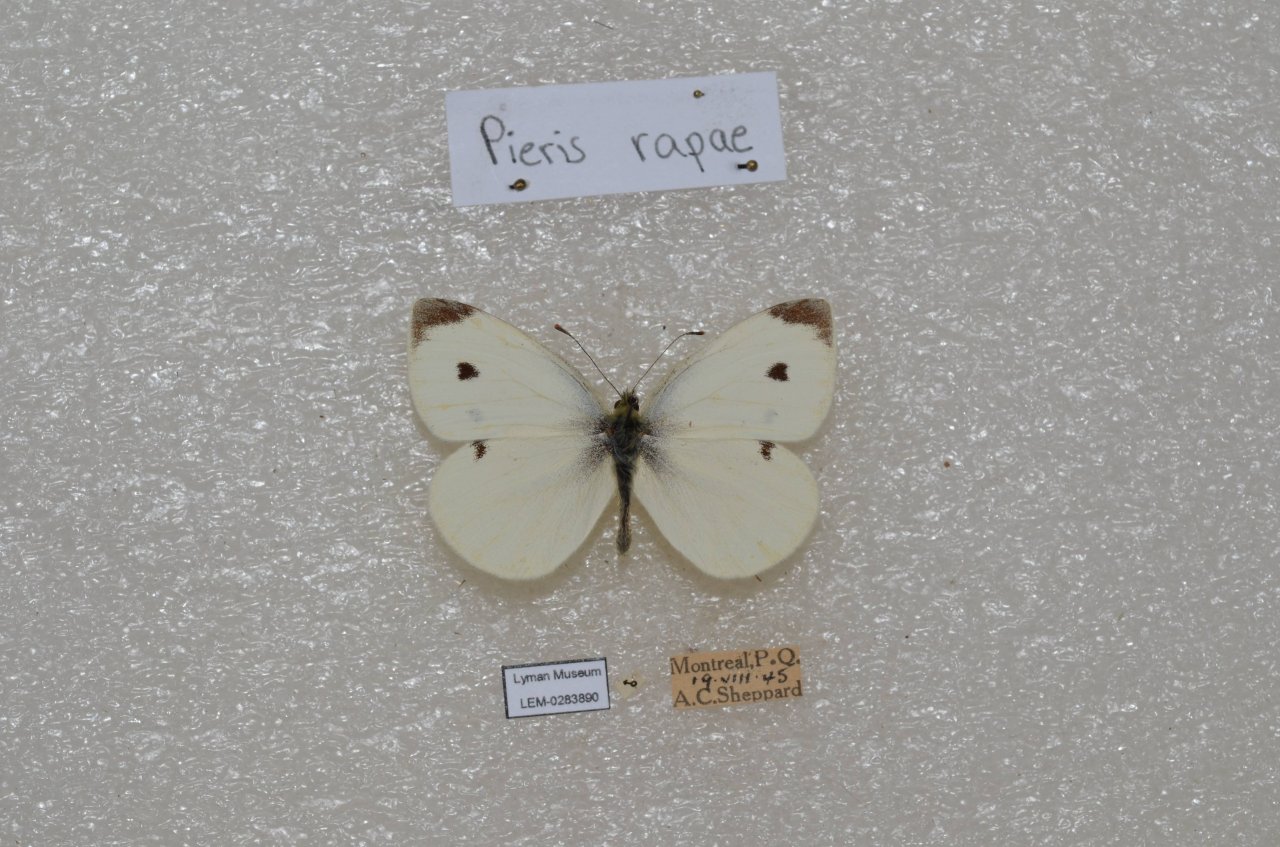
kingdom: Animalia
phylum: Arthropoda
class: Insecta
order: Lepidoptera
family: Pieridae
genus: Pieris
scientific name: Pieris rapae
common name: Cabbage White
